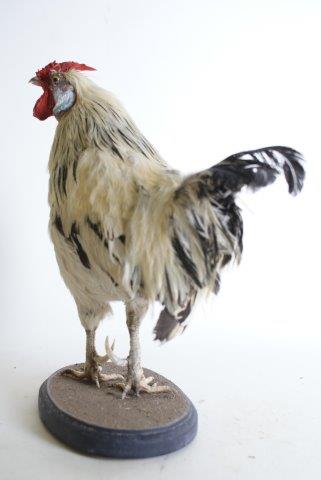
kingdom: Animalia
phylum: Chordata
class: Aves
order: Galliformes
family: Phasianidae
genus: Gallus
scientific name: Gallus gallus
